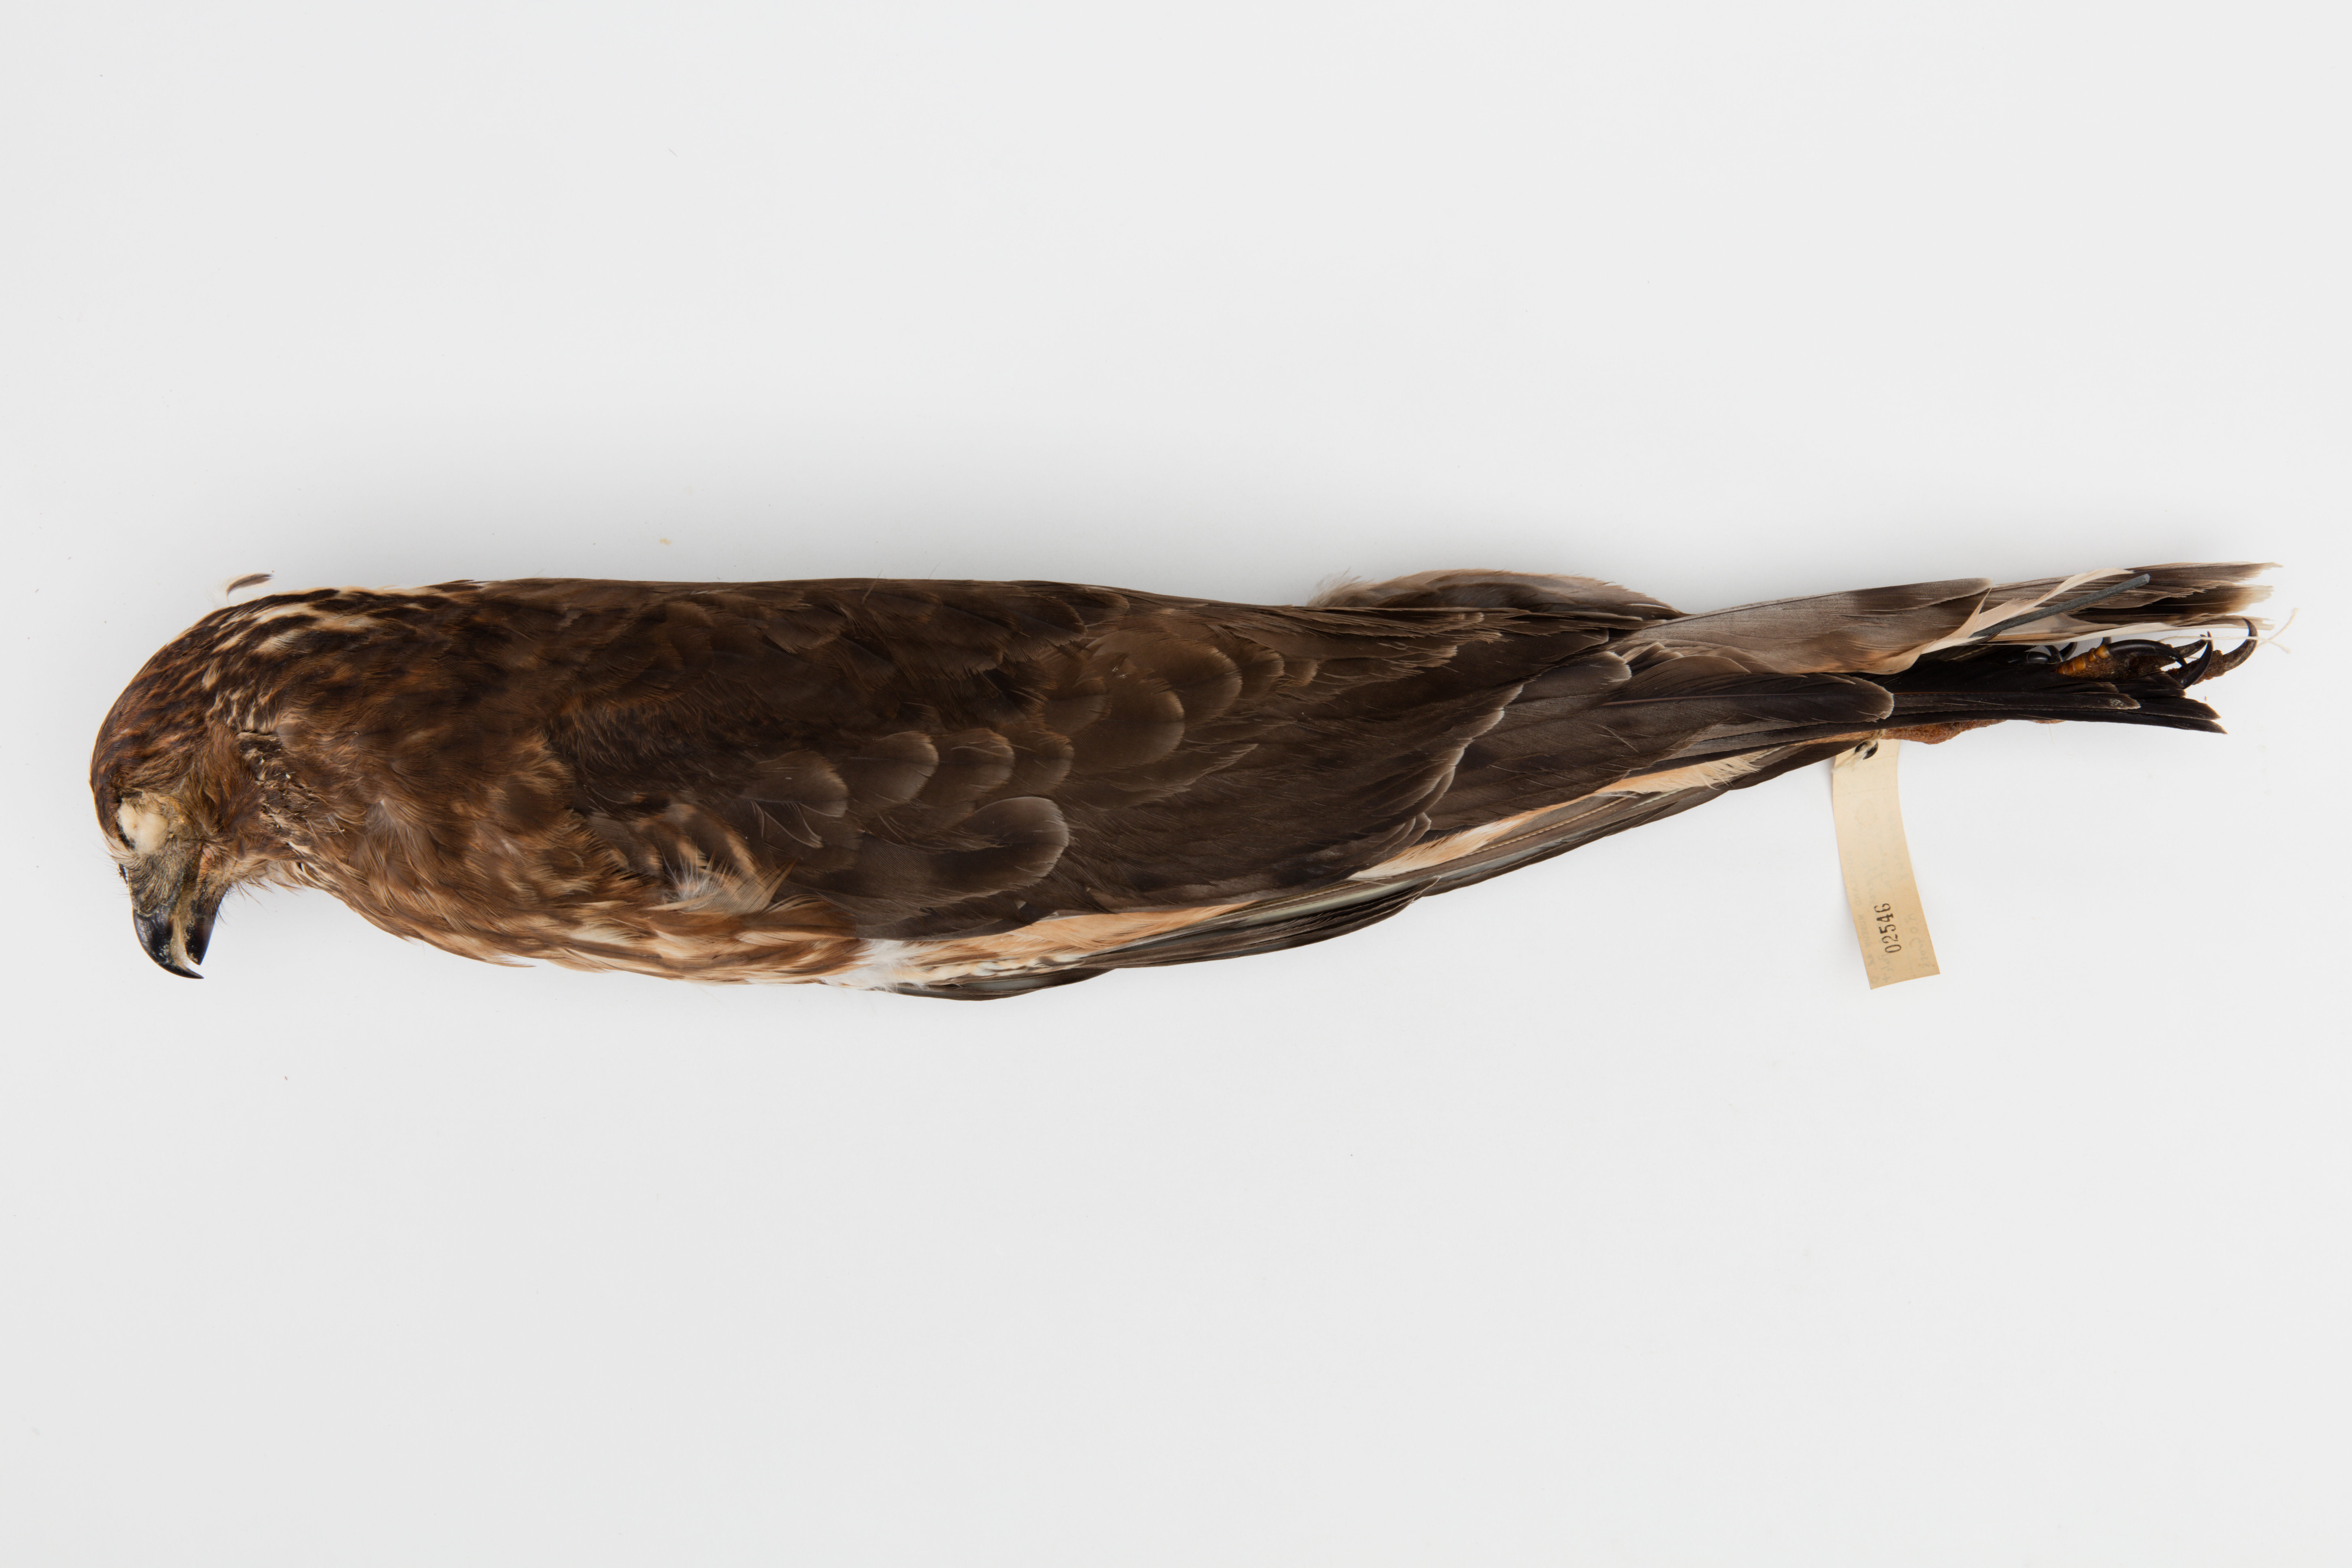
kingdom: Animalia
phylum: Chordata
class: Aves
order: Accipitriformes
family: Accipitridae
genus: Circus
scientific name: Circus approximans
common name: Swamp harrier
